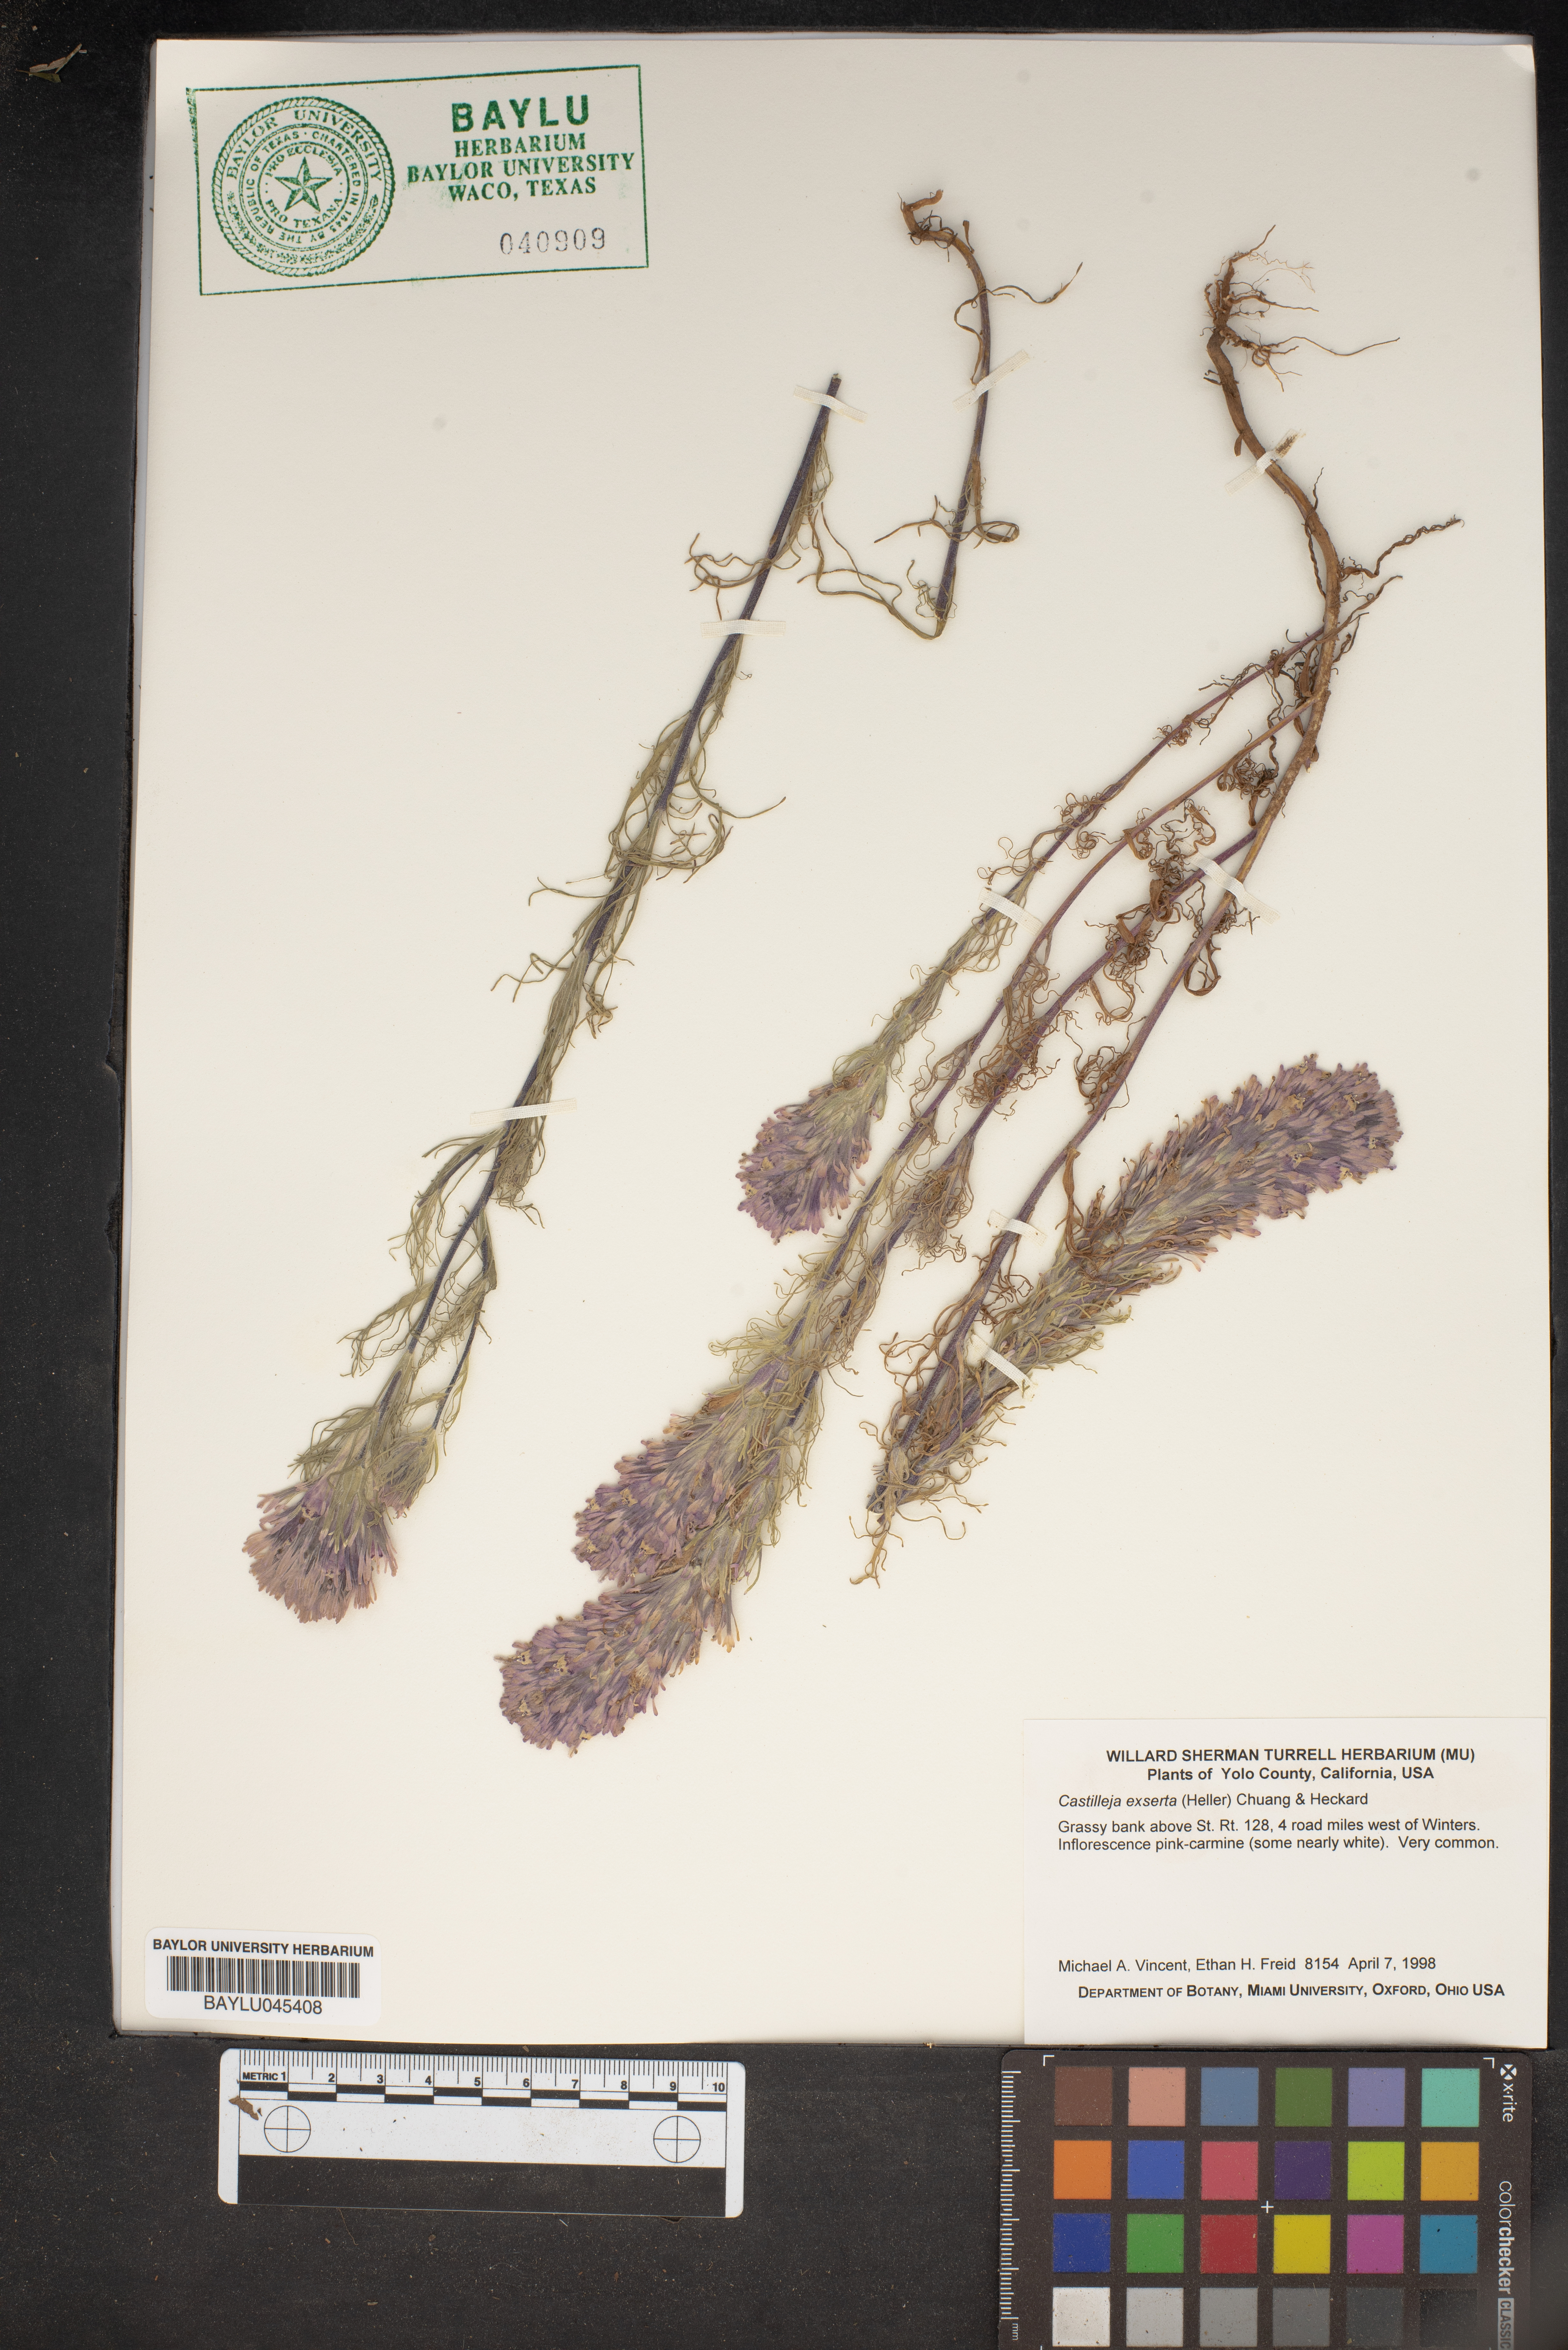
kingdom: Plantae
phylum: Tracheophyta
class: Magnoliopsida
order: Lamiales
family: Orobanchaceae
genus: Castilleja
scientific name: Castilleja exserta
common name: Purple owl-clover
